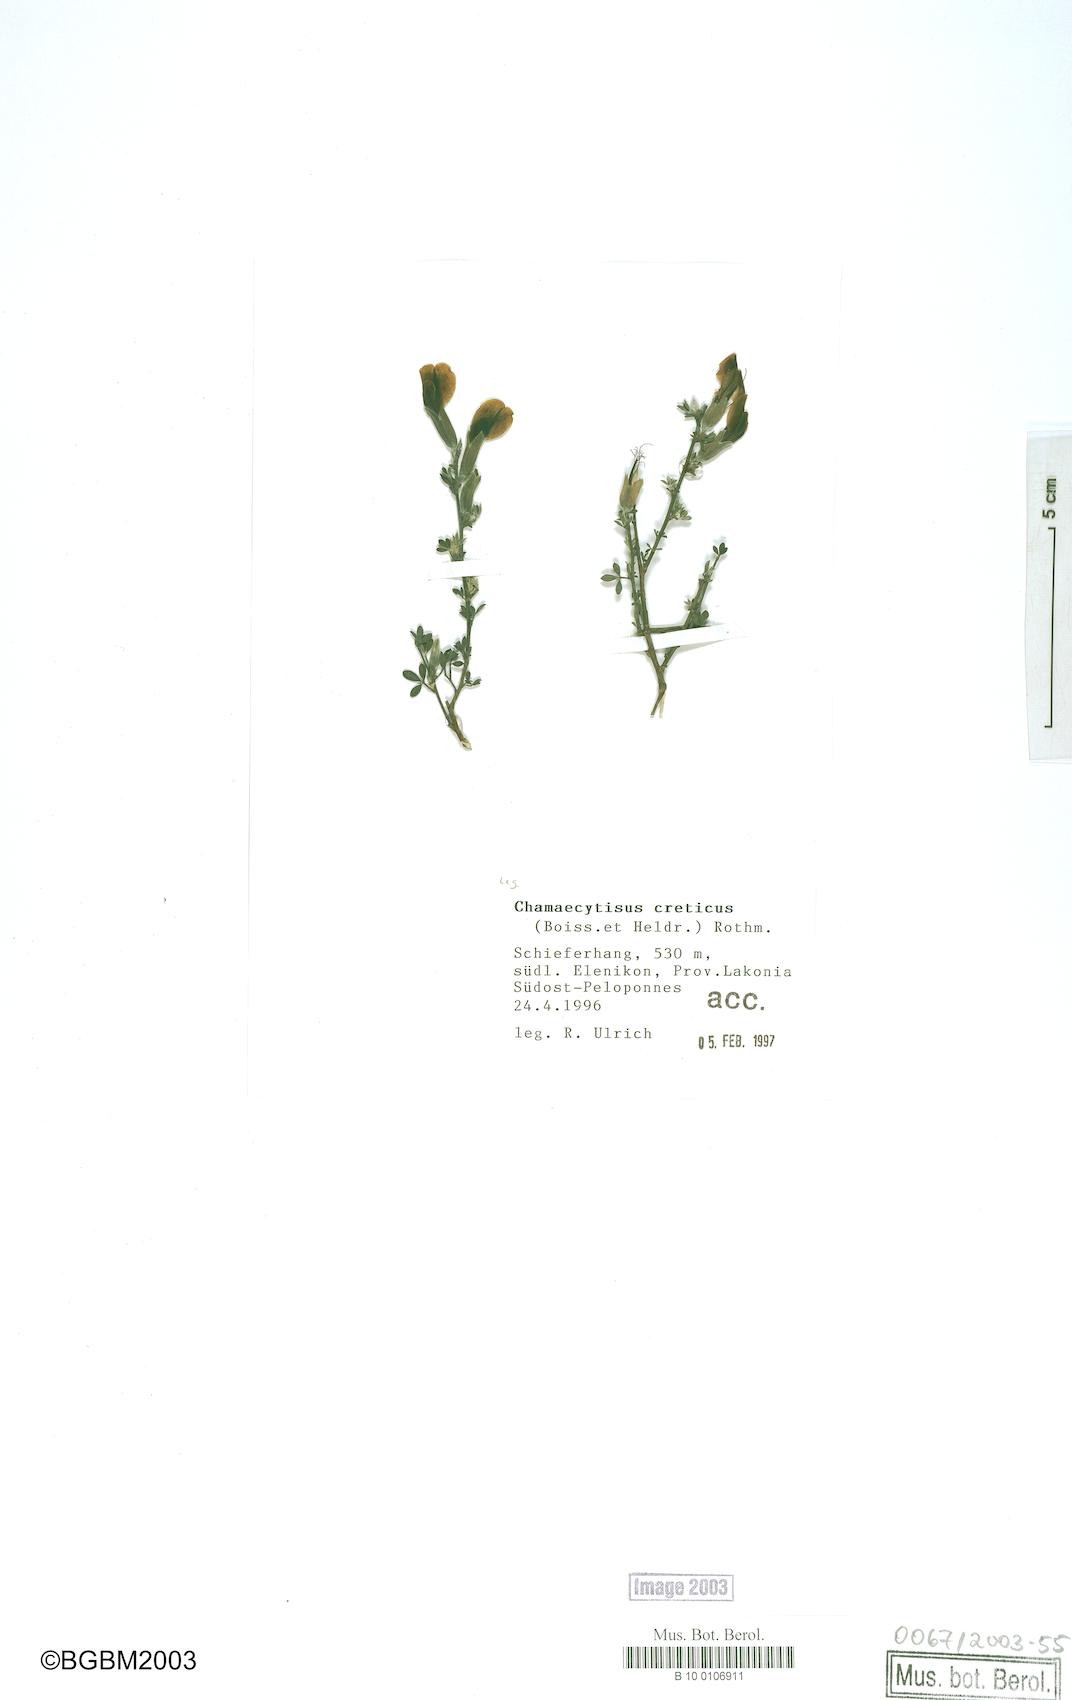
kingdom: Plantae
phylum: Tracheophyta
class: Magnoliopsida
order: Fabales
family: Fabaceae
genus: Chamaecytisus
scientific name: Chamaecytisus spinescens
